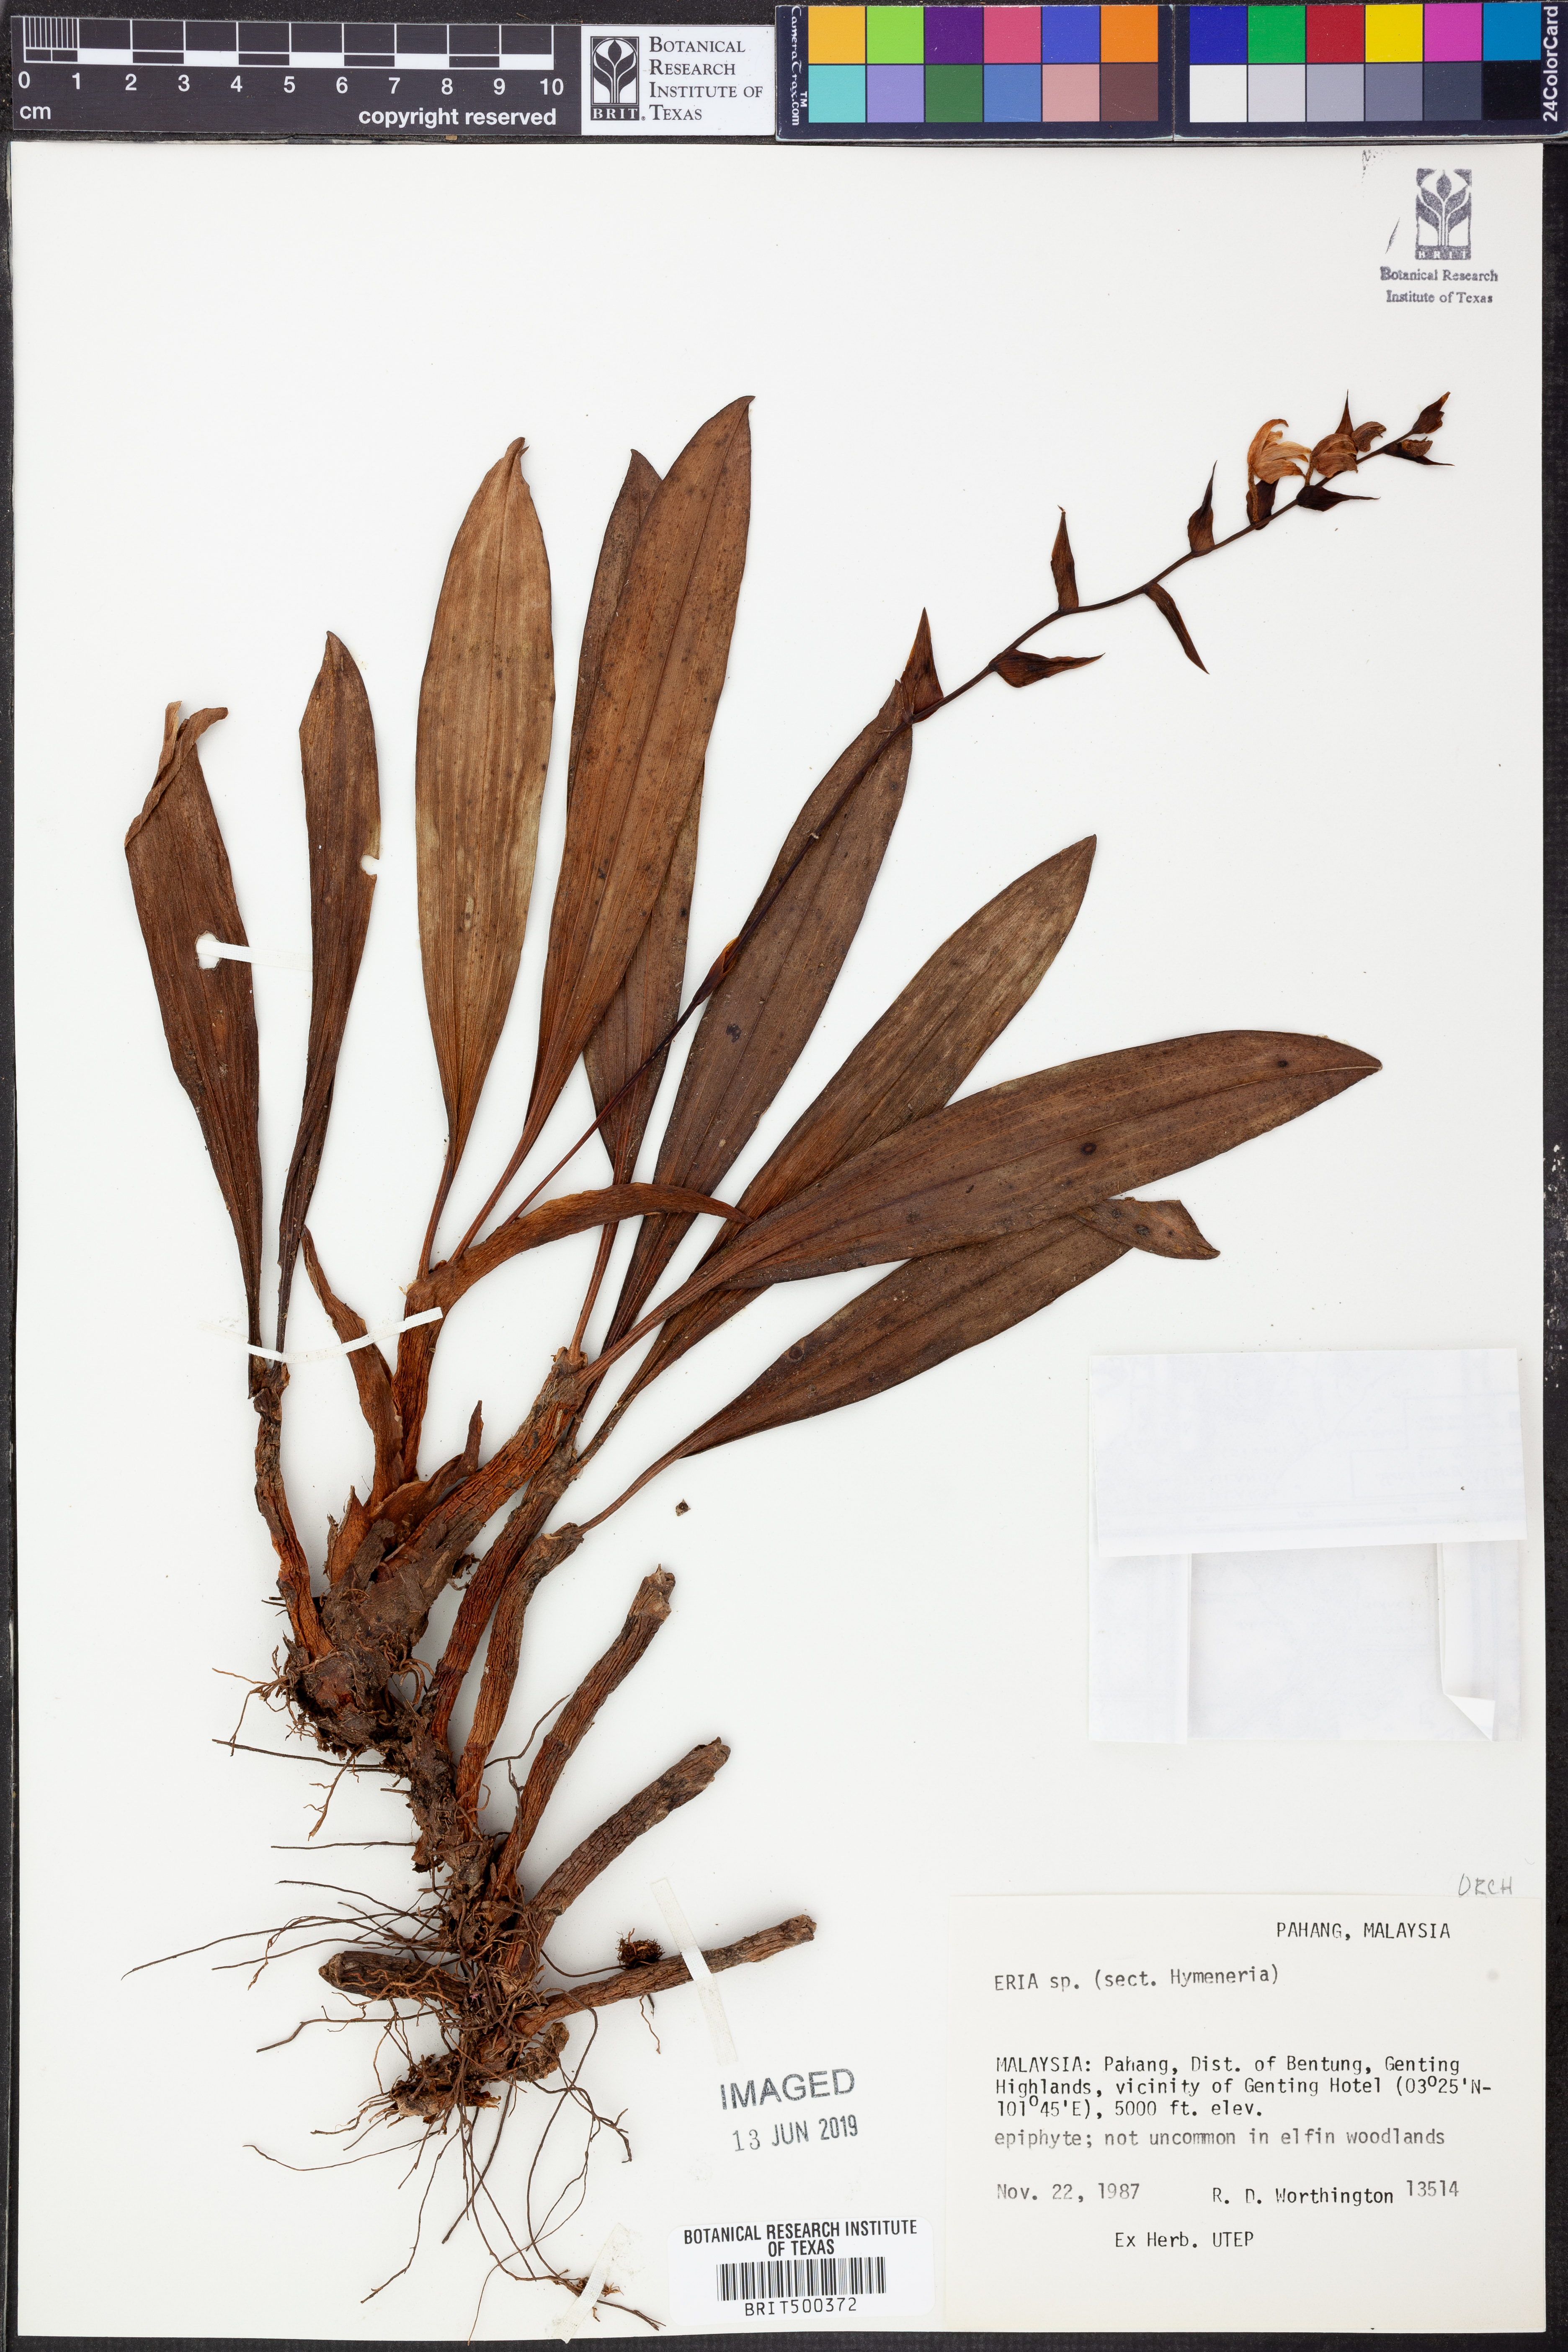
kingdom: Plantae
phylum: Tracheophyta
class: Liliopsida
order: Asparagales
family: Orchidaceae
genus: Eria
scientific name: Eria
